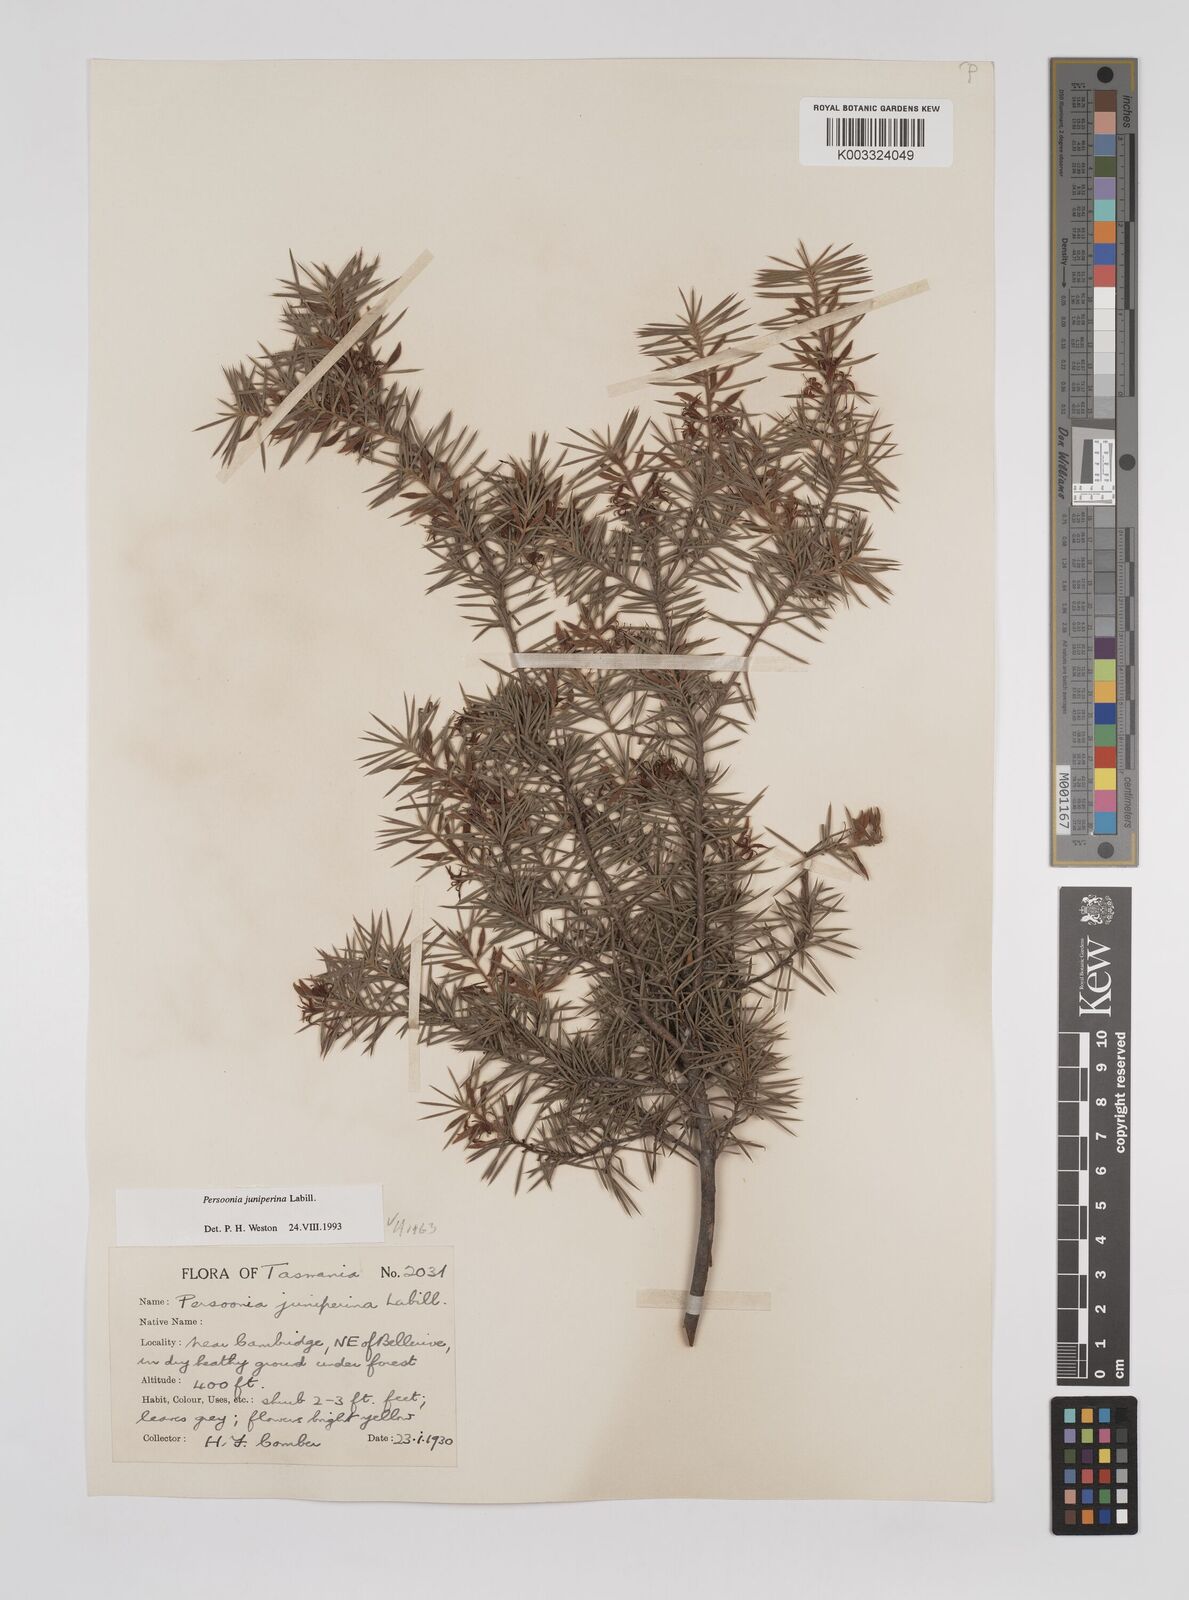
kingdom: Plantae
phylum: Tracheophyta
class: Magnoliopsida
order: Proteales
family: Proteaceae
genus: Persoonia
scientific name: Persoonia juniperina
